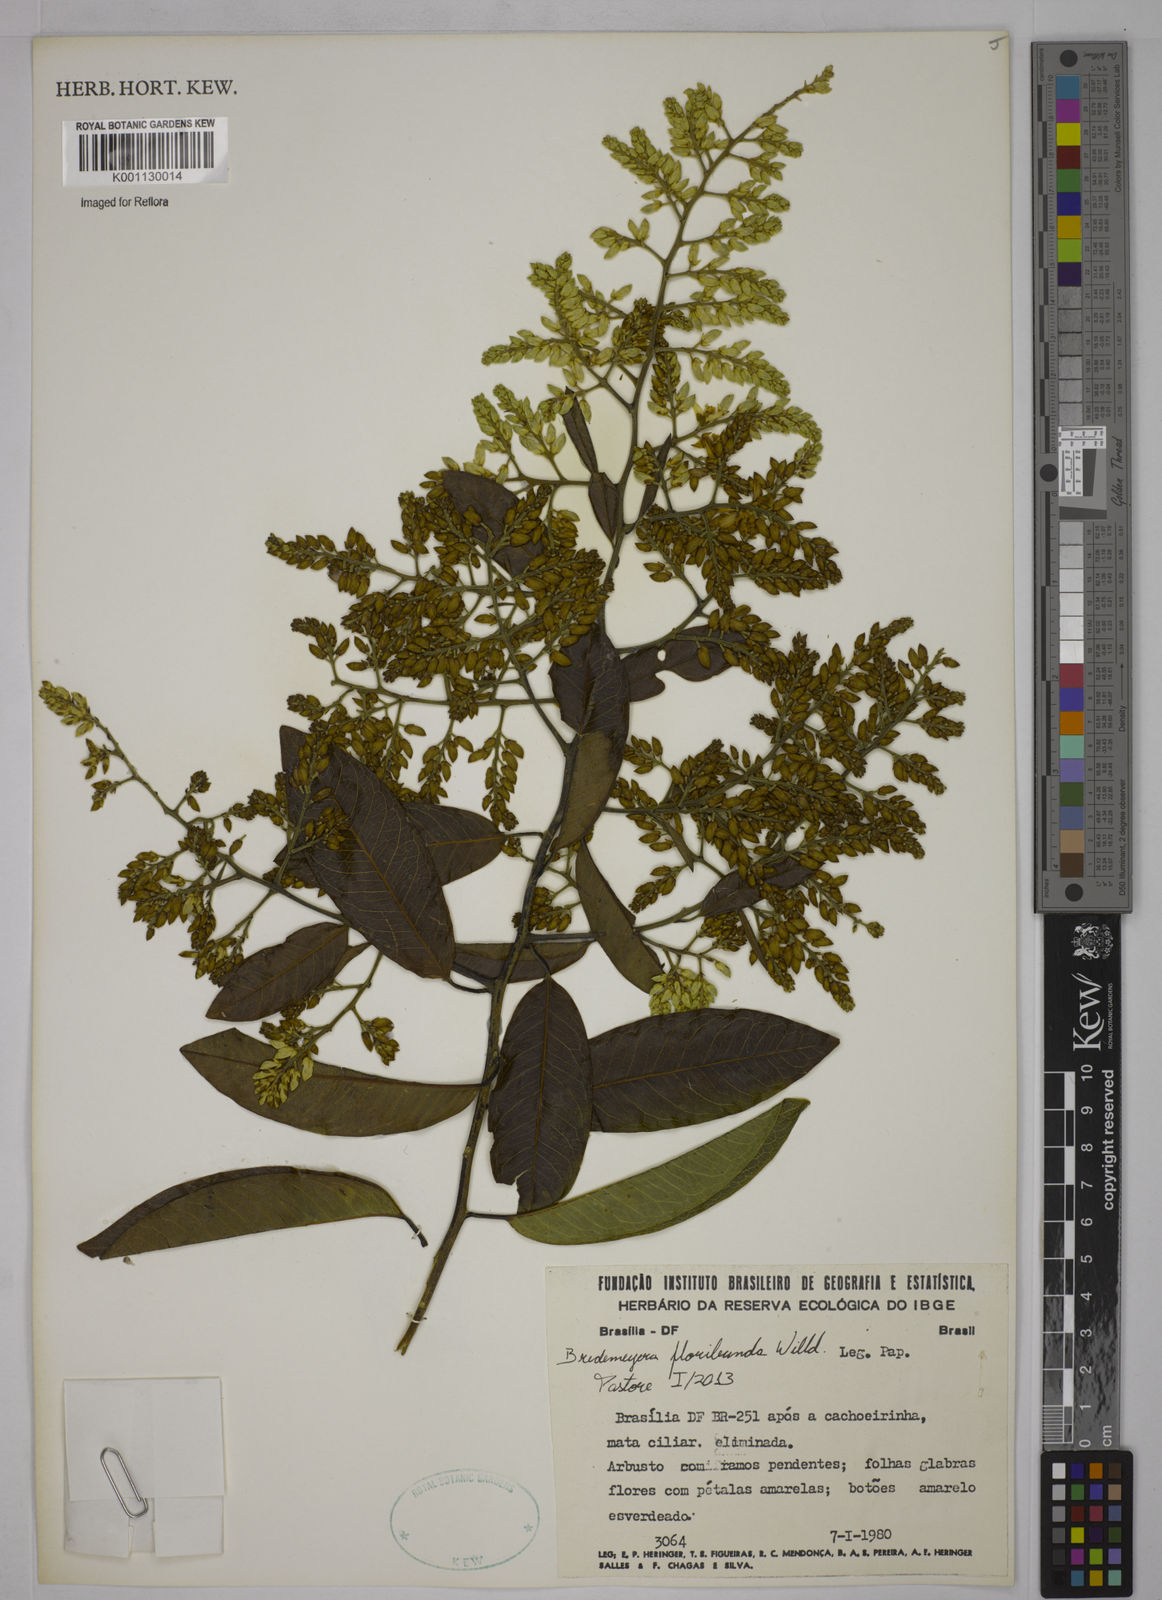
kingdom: Plantae
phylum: Tracheophyta
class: Magnoliopsida
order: Fabales
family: Polygalaceae
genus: Bredemeyera
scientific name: Bredemeyera floribunda
